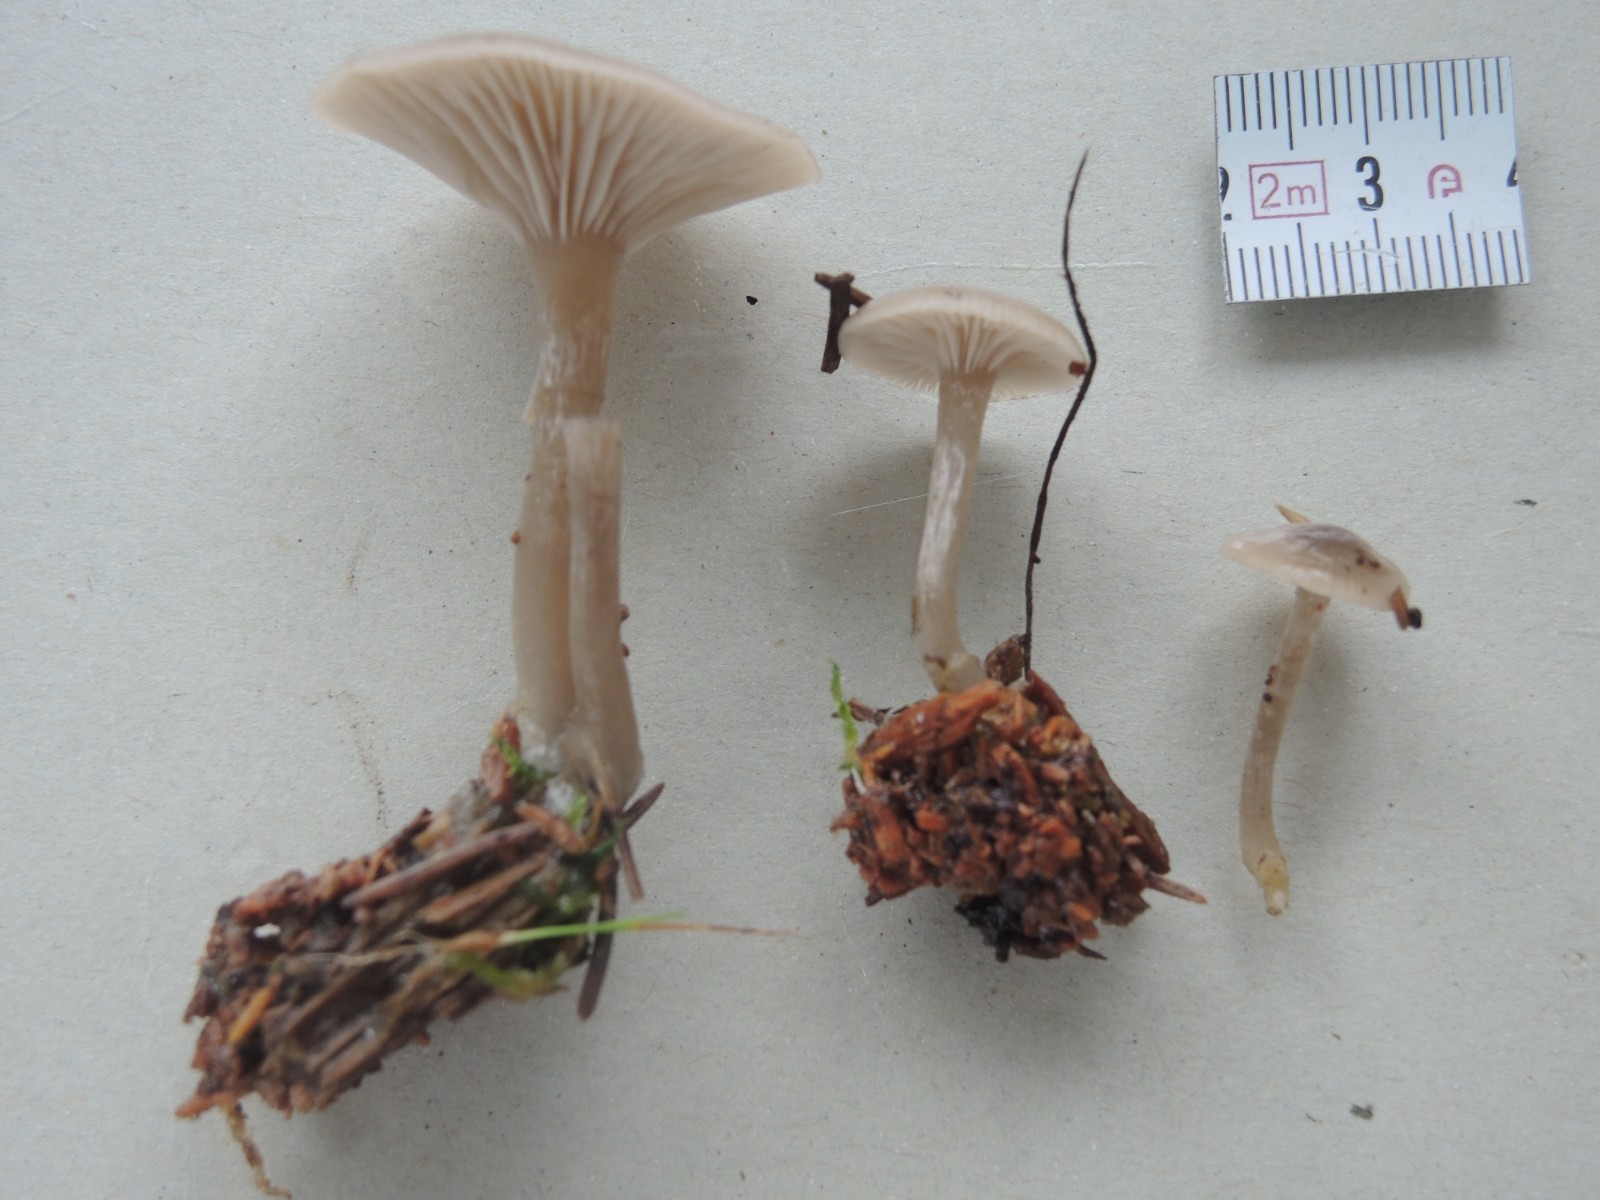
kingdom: Fungi
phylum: Basidiomycota
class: Agaricomycetes
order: Agaricales
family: Tricholomataceae
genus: Clitocybe
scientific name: Clitocybe vibecina
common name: randstribet tragthat
